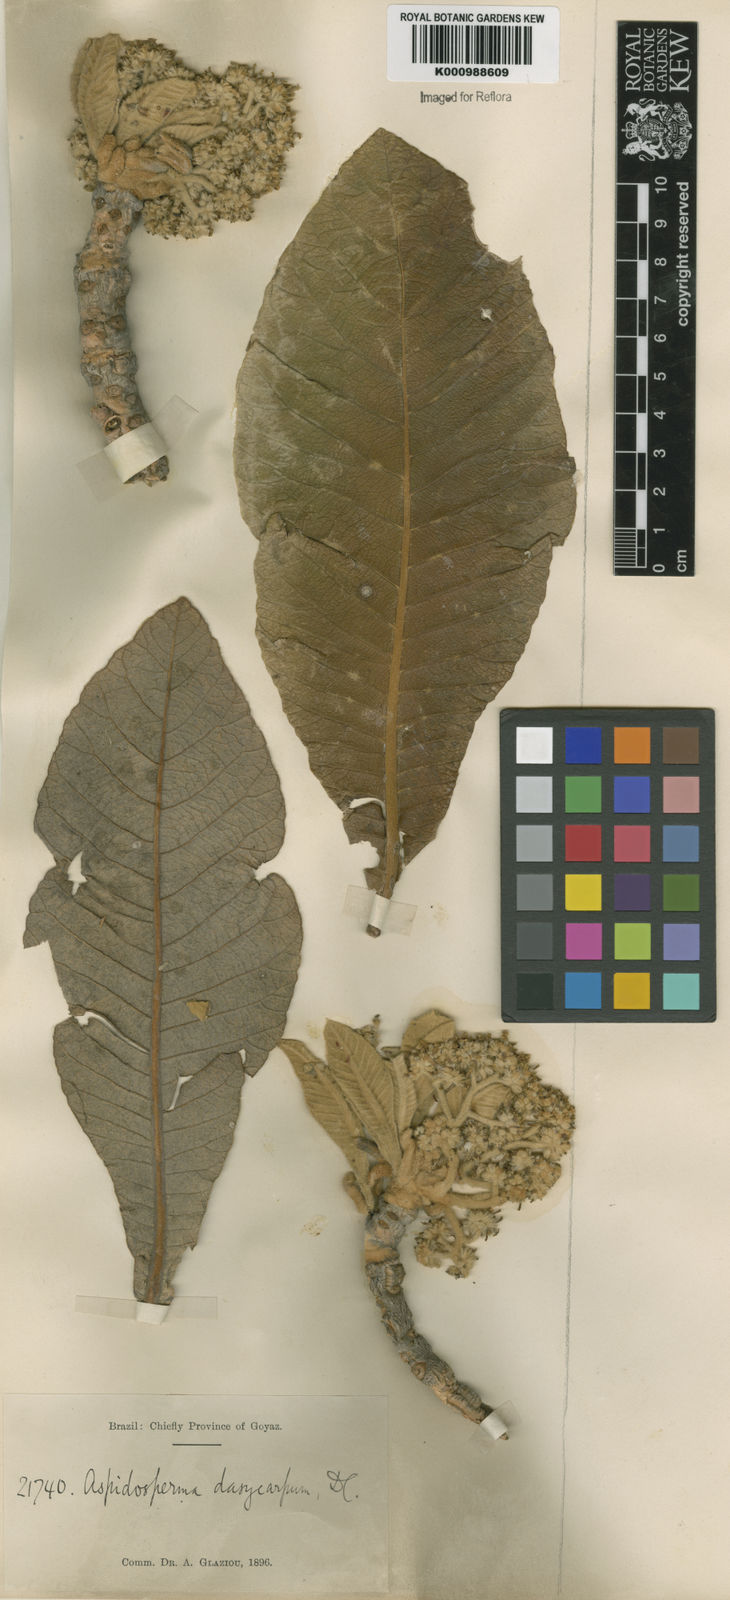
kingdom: Plantae
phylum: Tracheophyta
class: Magnoliopsida
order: Gentianales
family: Apocynaceae
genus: Aspidosperma
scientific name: Aspidosperma tomentosum
